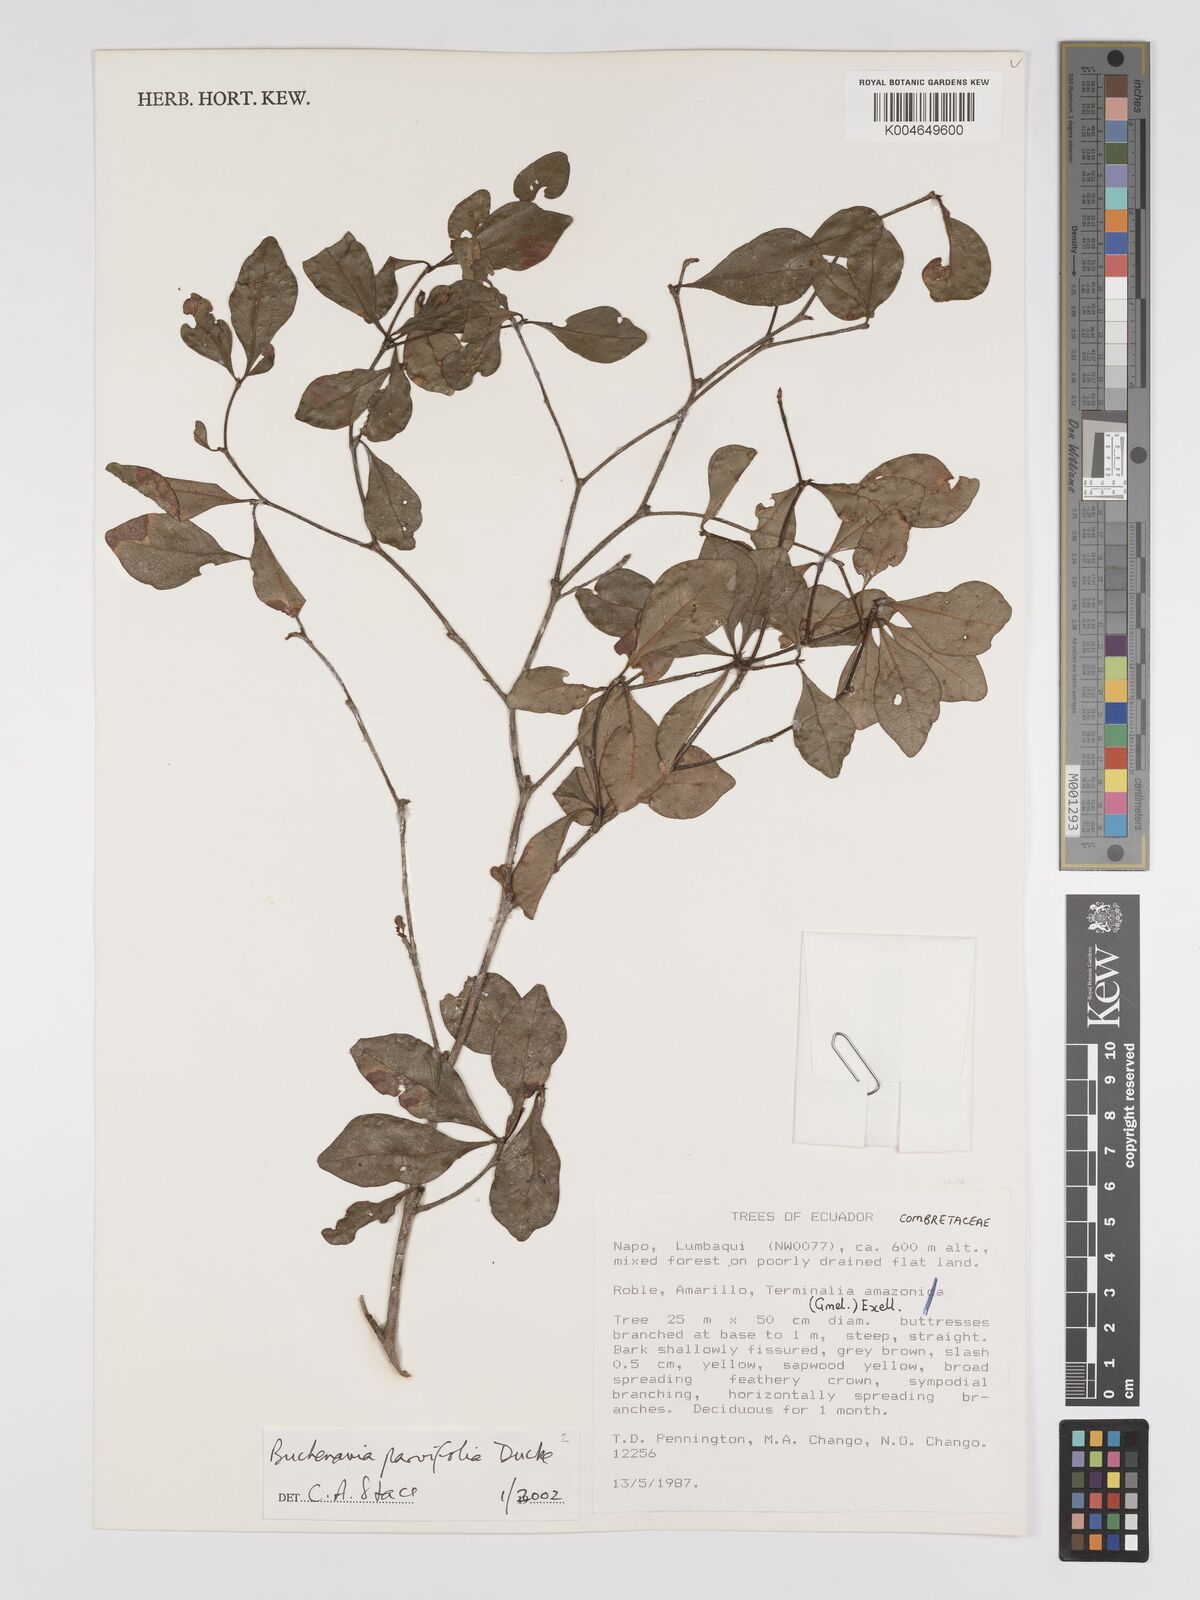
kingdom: Plantae
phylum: Tracheophyta
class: Magnoliopsida
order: Myrtales
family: Combretaceae
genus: Terminalia
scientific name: Terminalia parvifolia
